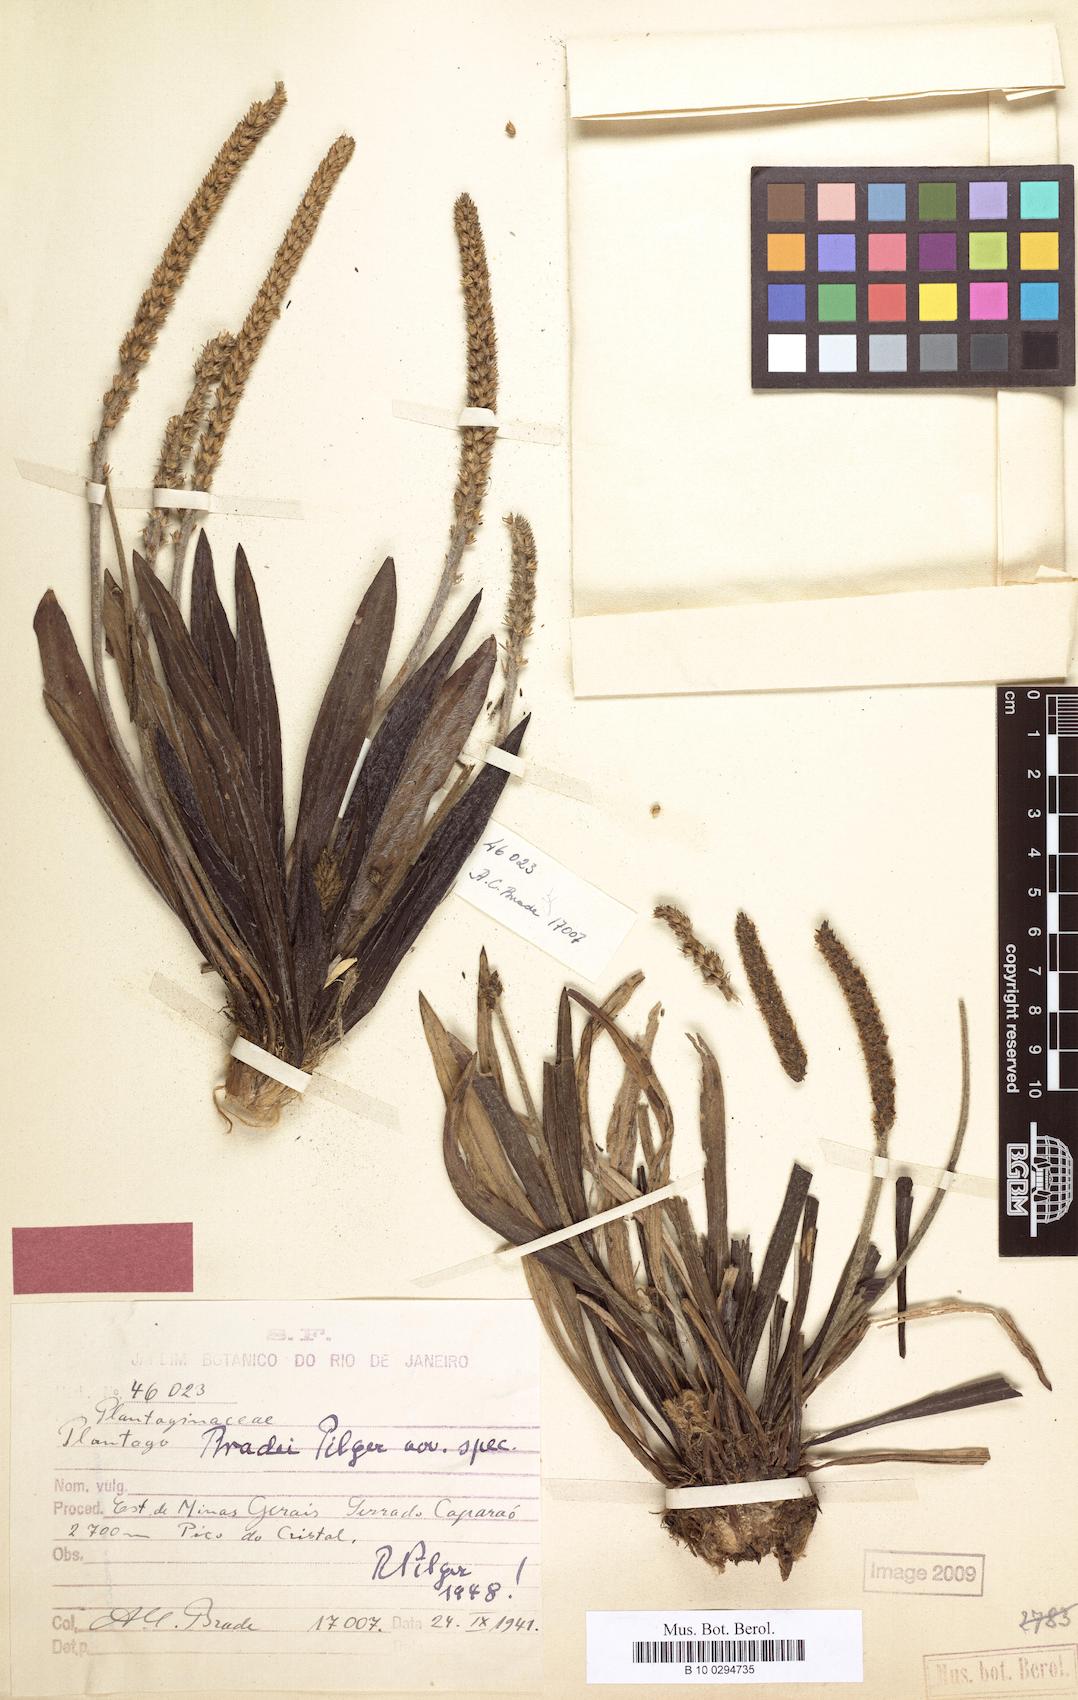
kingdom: Plantae
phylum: Tracheophyta
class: Magnoliopsida
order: Lamiales
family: Plantaginaceae
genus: Plantago
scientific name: Plantago bradei
